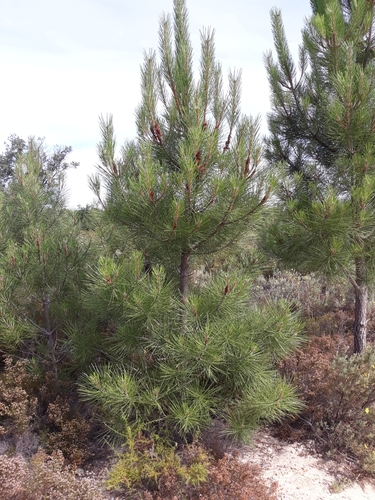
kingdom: Plantae
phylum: Tracheophyta
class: Pinopsida
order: Pinales
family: Pinaceae
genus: Pinus
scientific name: Pinus pinaster
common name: Maritime pine
